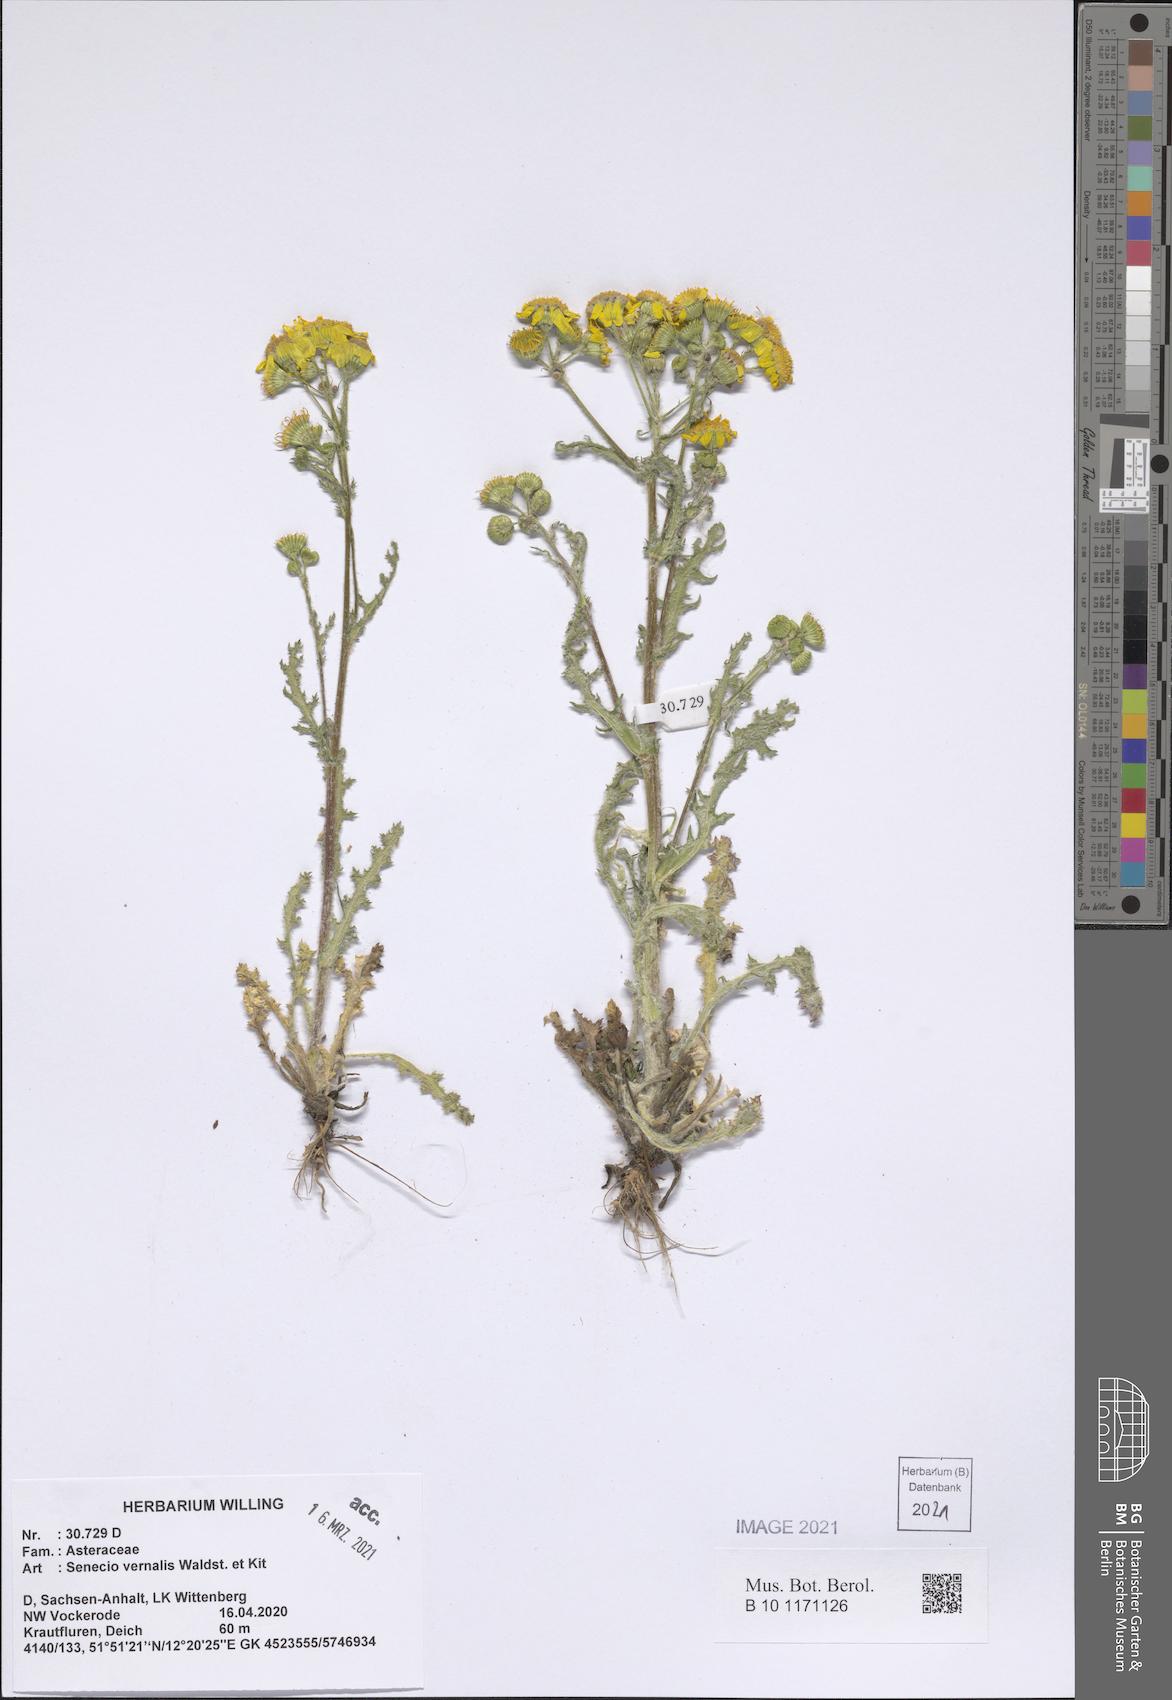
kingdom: Plantae
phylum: Tracheophyta
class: Magnoliopsida
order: Asterales
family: Asteraceae
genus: Senecio
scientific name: Senecio vernalis
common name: Eastern groundsel
